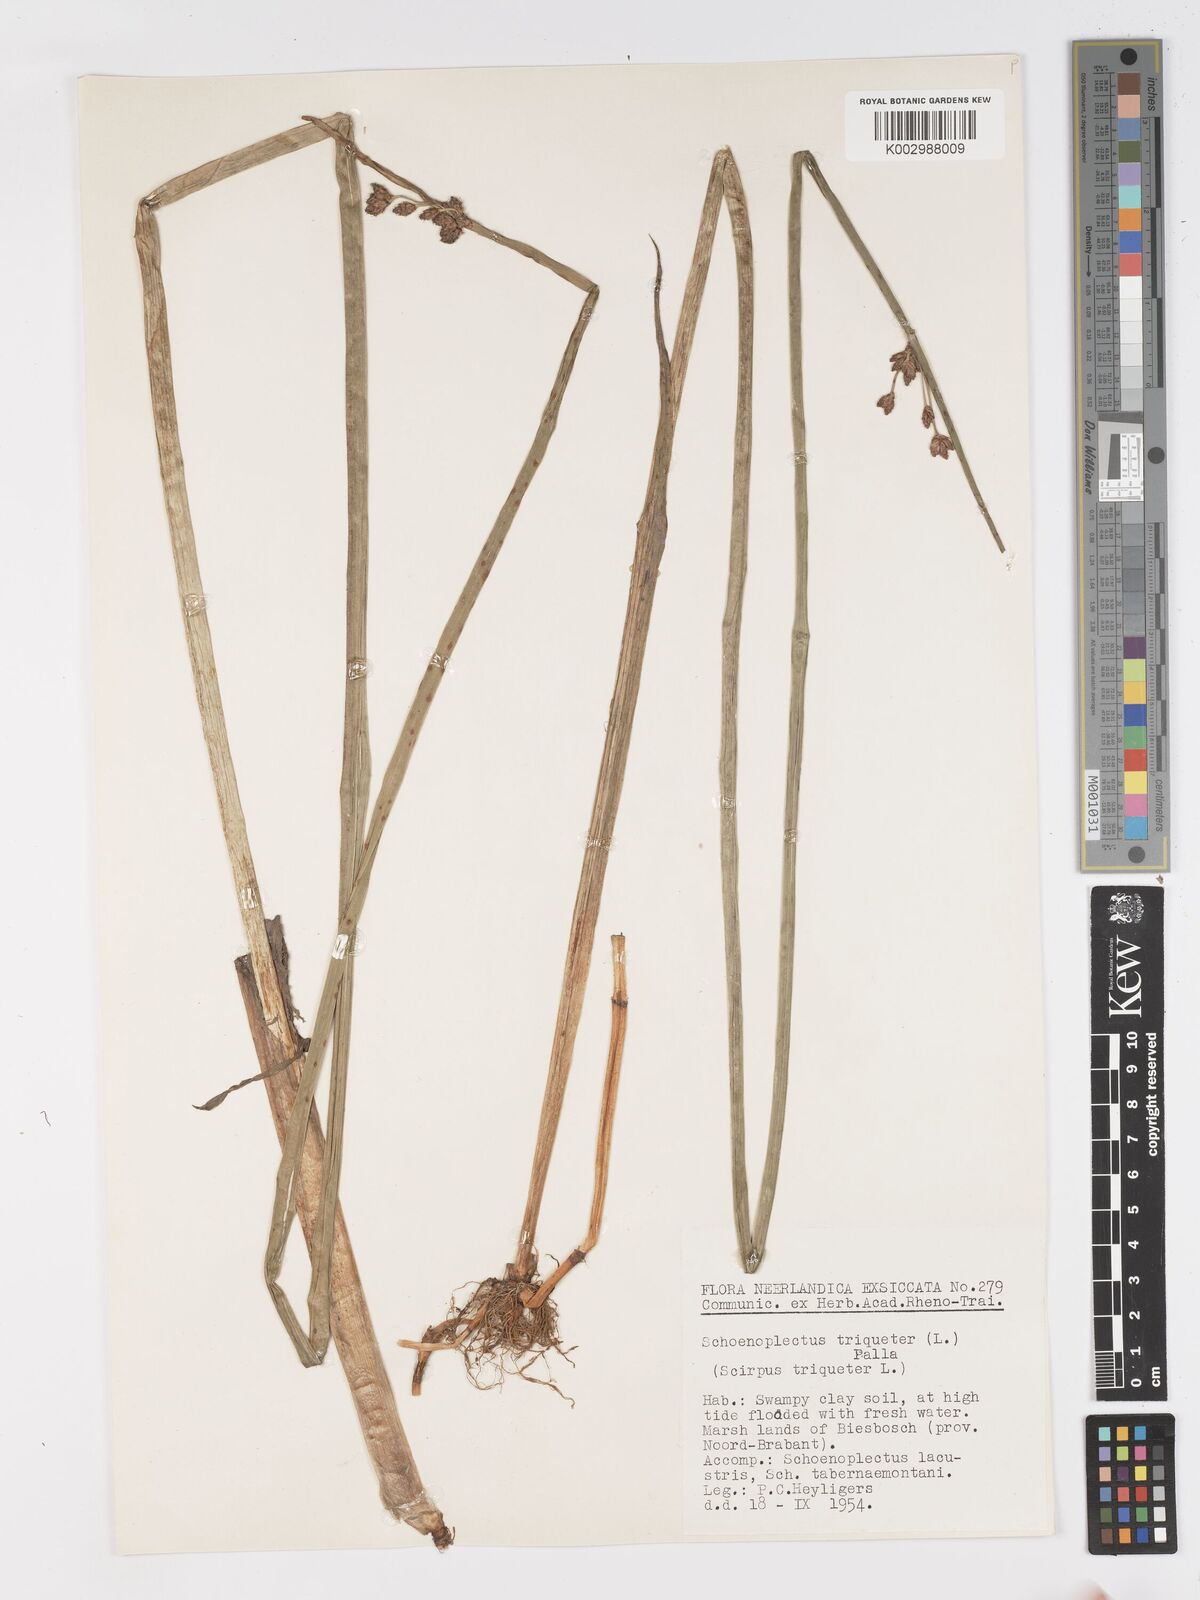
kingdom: Plantae
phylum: Tracheophyta
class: Liliopsida
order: Poales
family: Cyperaceae
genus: Schoenoplectus
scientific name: Schoenoplectus triqueter
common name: Triangular club-rush
